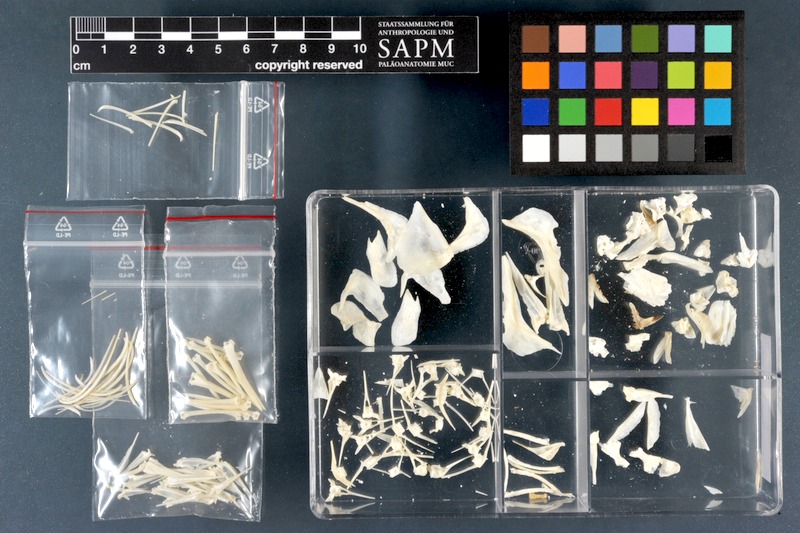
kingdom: Animalia
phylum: Chordata
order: Perciformes
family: Cichlidae
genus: Sarotherodon
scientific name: Sarotherodon galilaeus
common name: Mango tilapia
